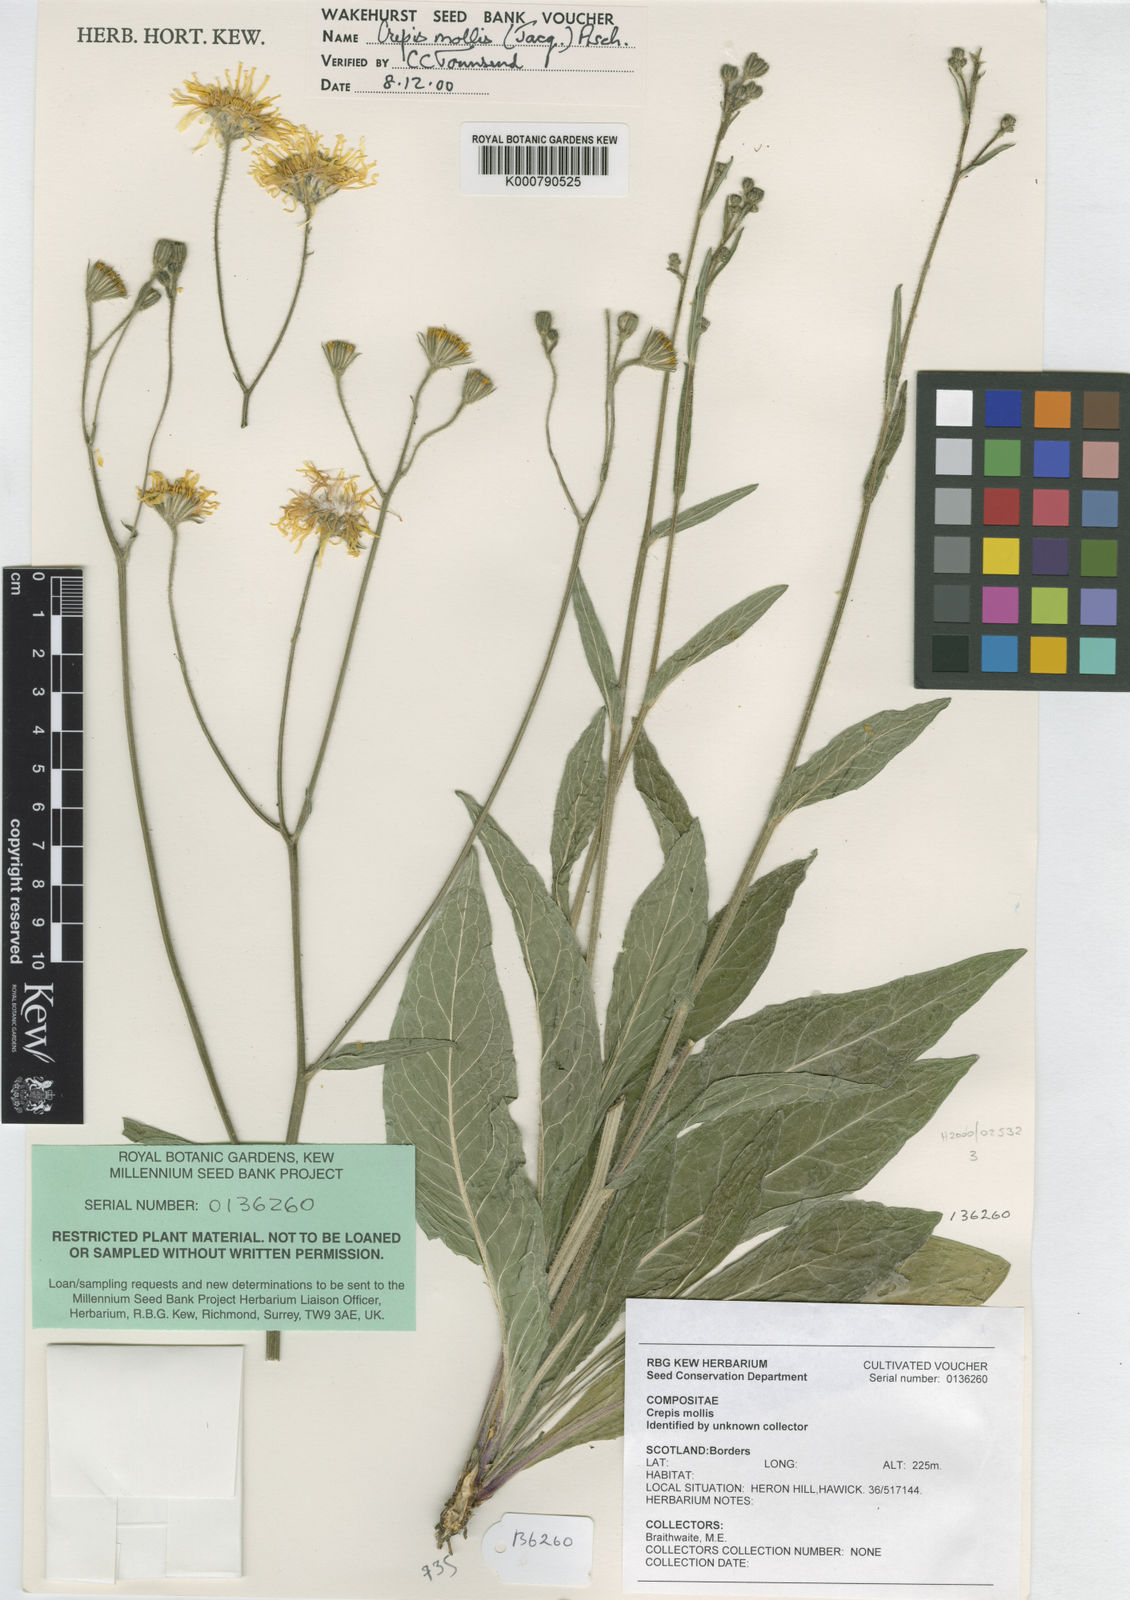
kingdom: Plantae
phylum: Tracheophyta
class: Magnoliopsida
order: Asterales
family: Asteraceae
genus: Crepis
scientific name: Crepis mollis
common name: Northern hawk's-beard
